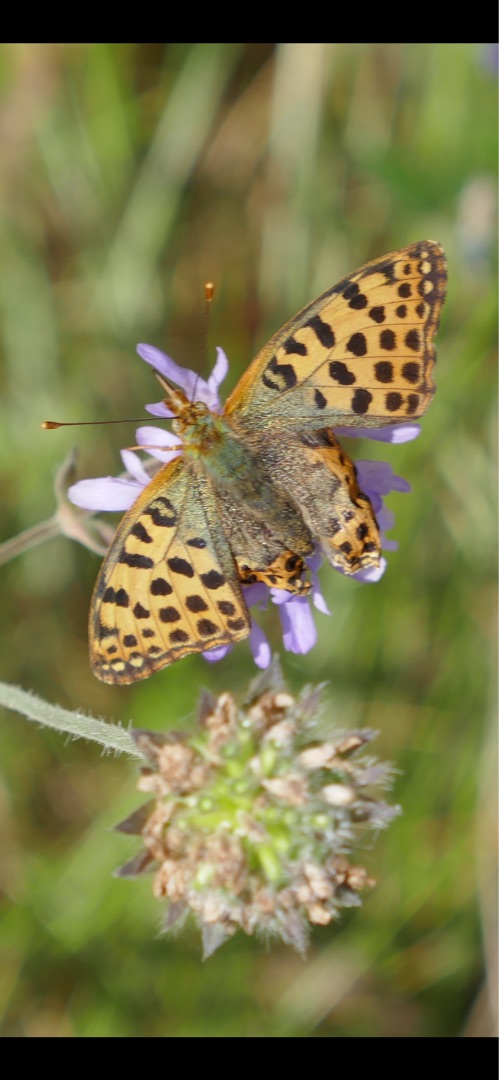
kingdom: Animalia
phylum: Arthropoda
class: Insecta
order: Lepidoptera
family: Nymphalidae
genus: Issoria
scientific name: Issoria lathonia
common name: Storplettet perlemorsommerfugl
